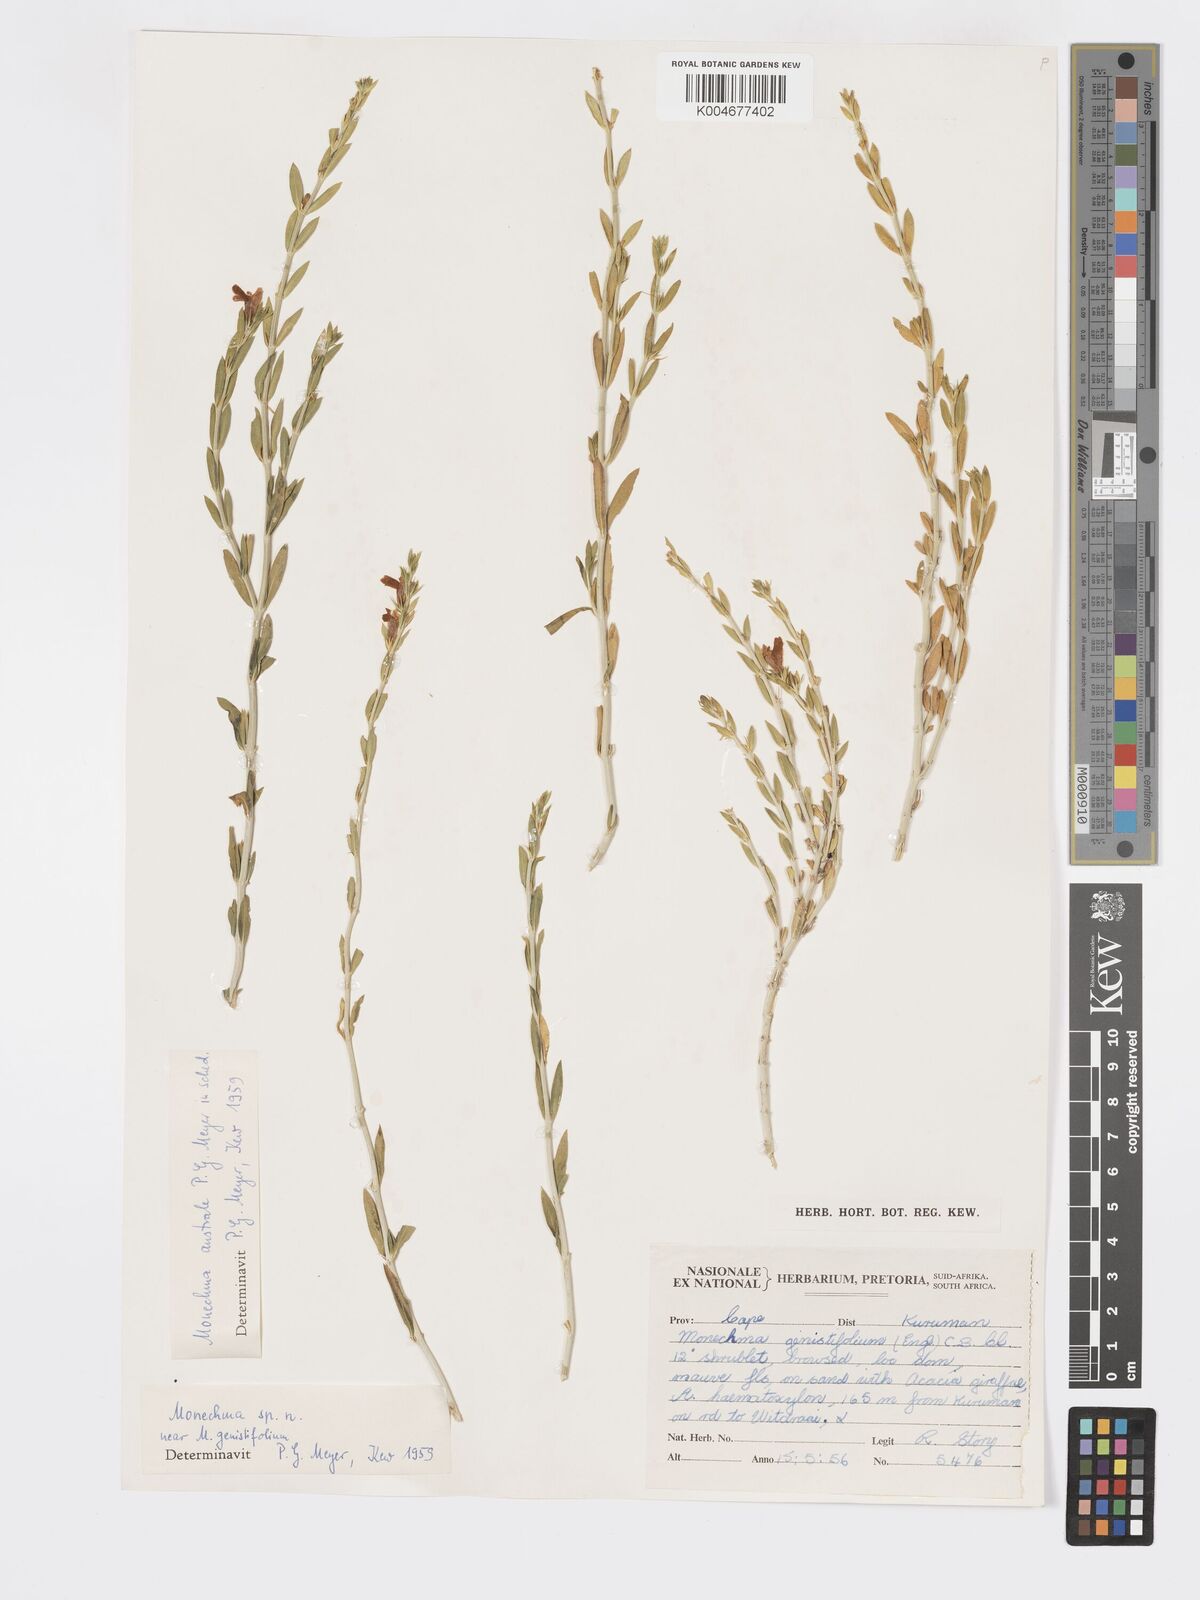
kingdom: Plantae
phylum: Tracheophyta
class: Magnoliopsida
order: Lamiales
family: Acanthaceae
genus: Pogonospermum
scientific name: Pogonospermum
